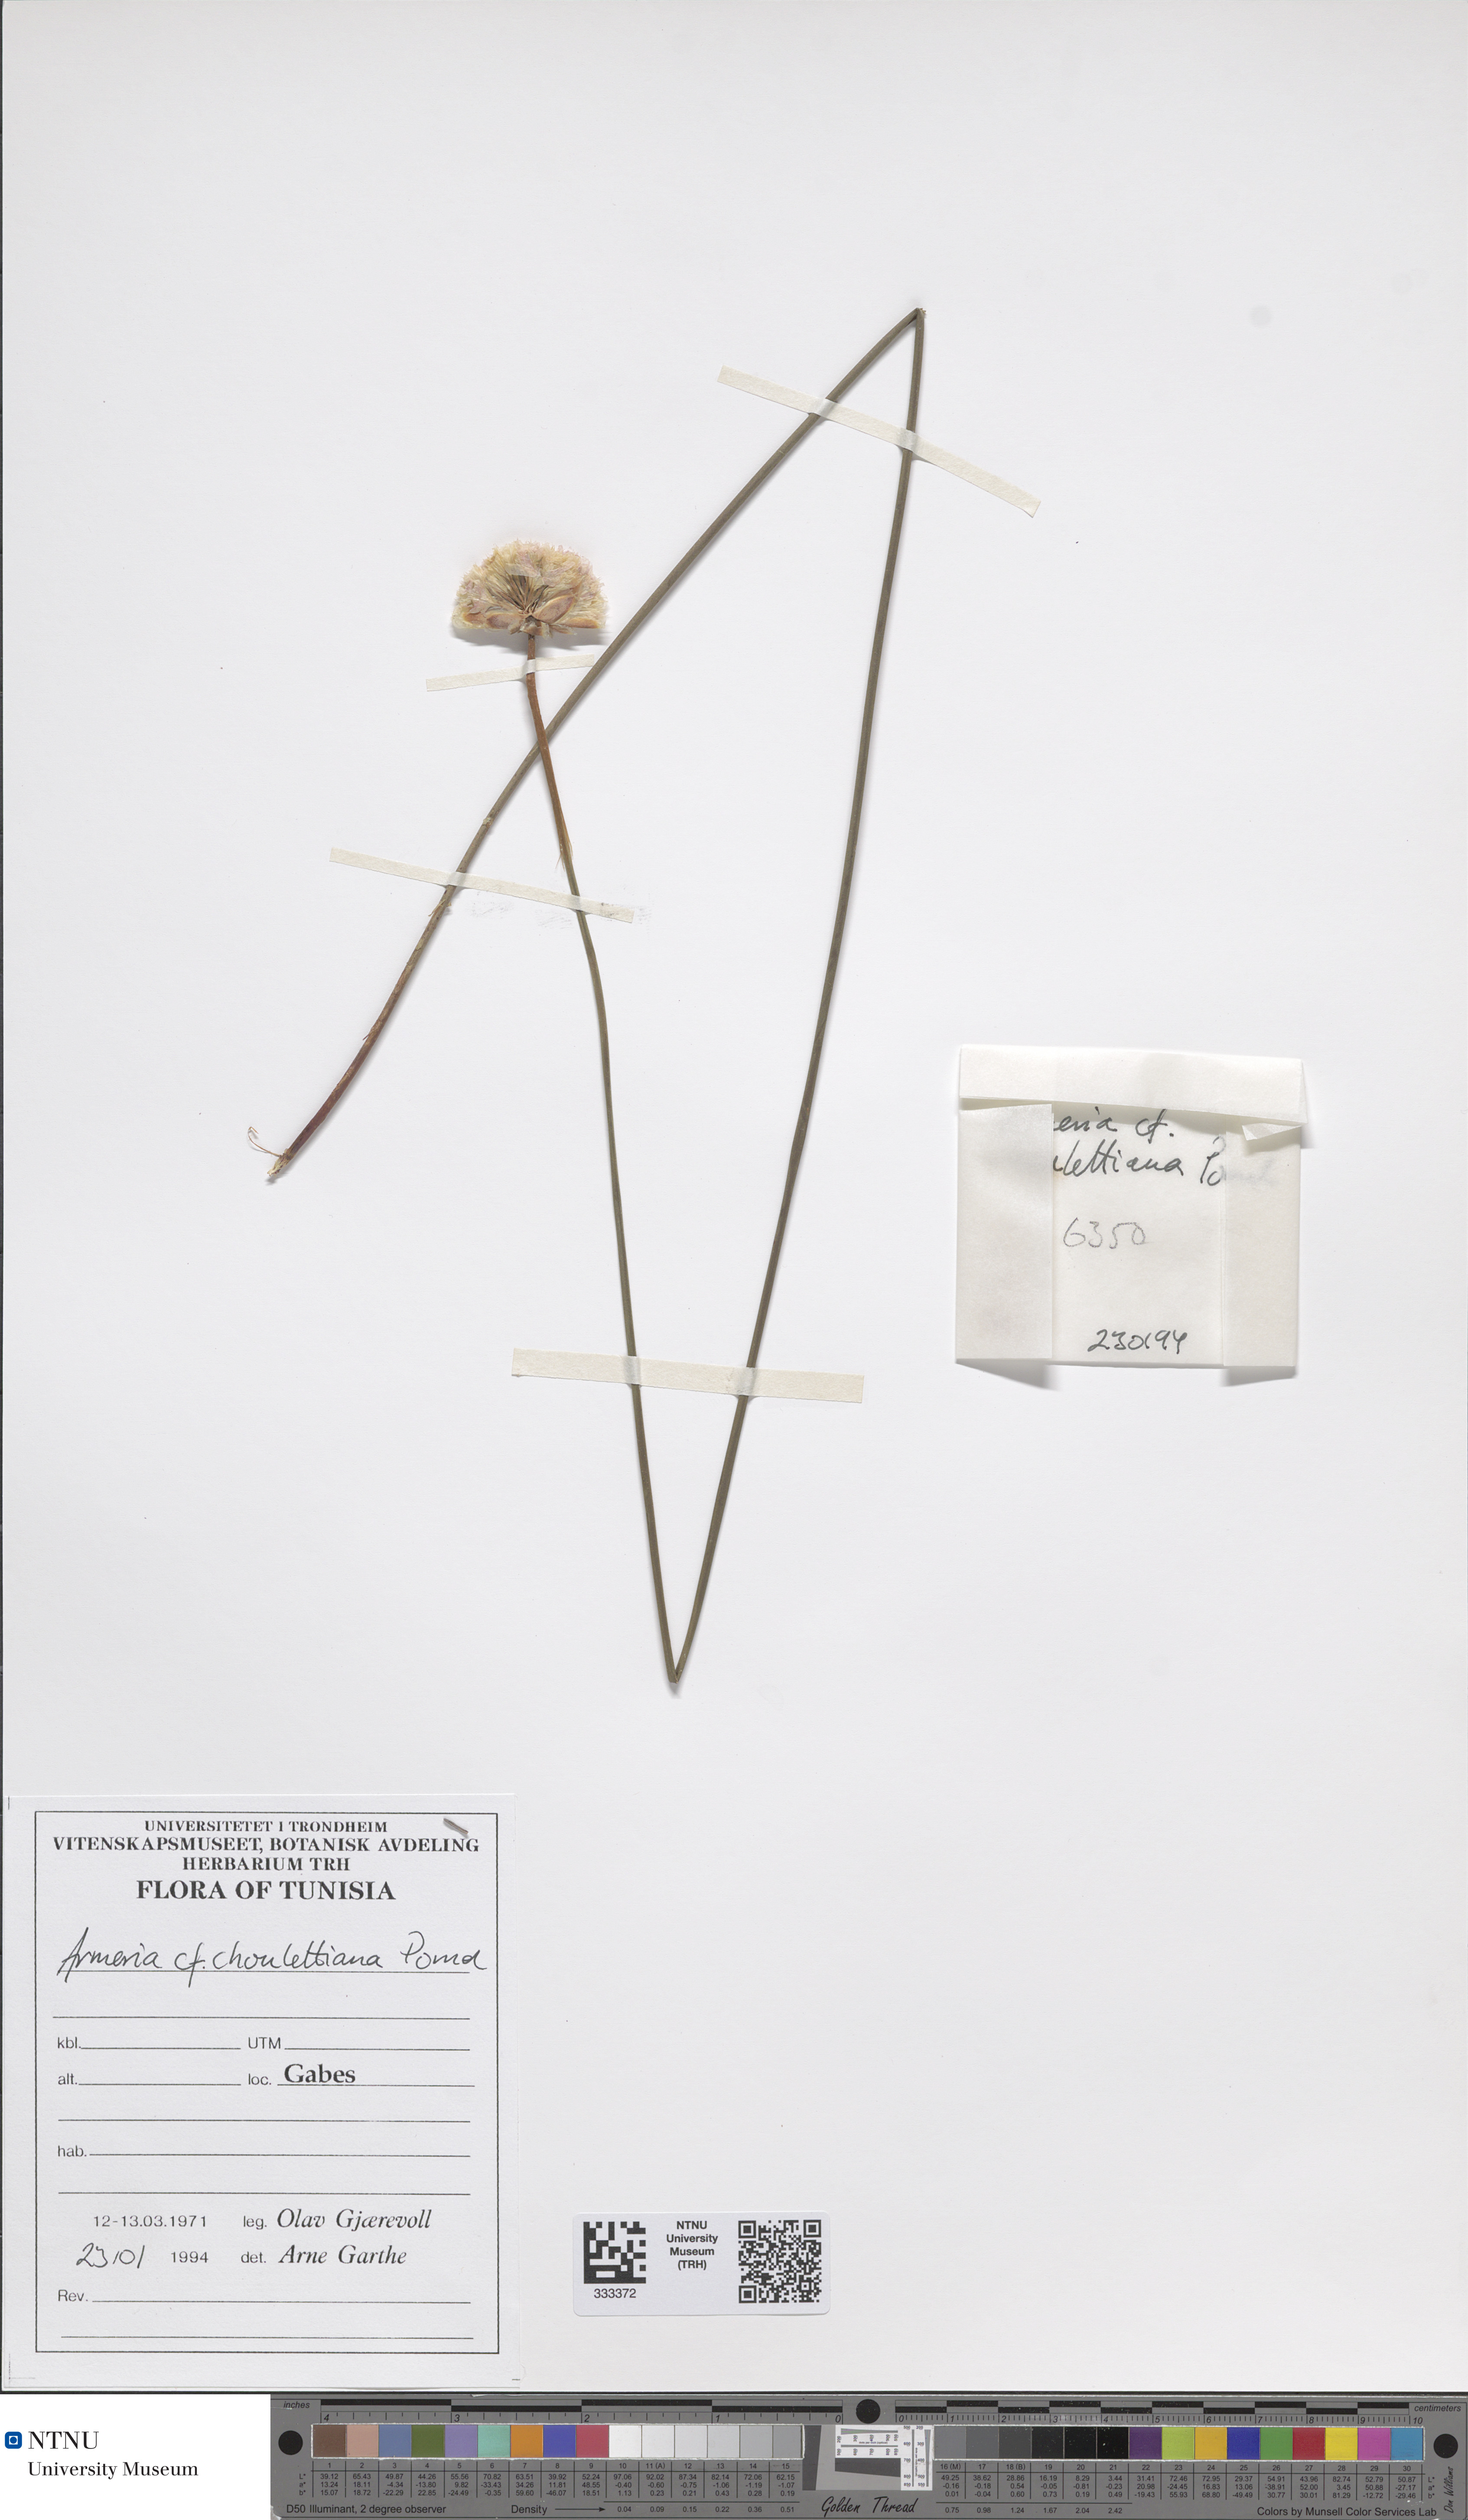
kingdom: Plantae
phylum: Tracheophyta
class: Magnoliopsida
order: Caryophyllales
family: Plumbaginaceae
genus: Armeria
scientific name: Armeria choulettiana
